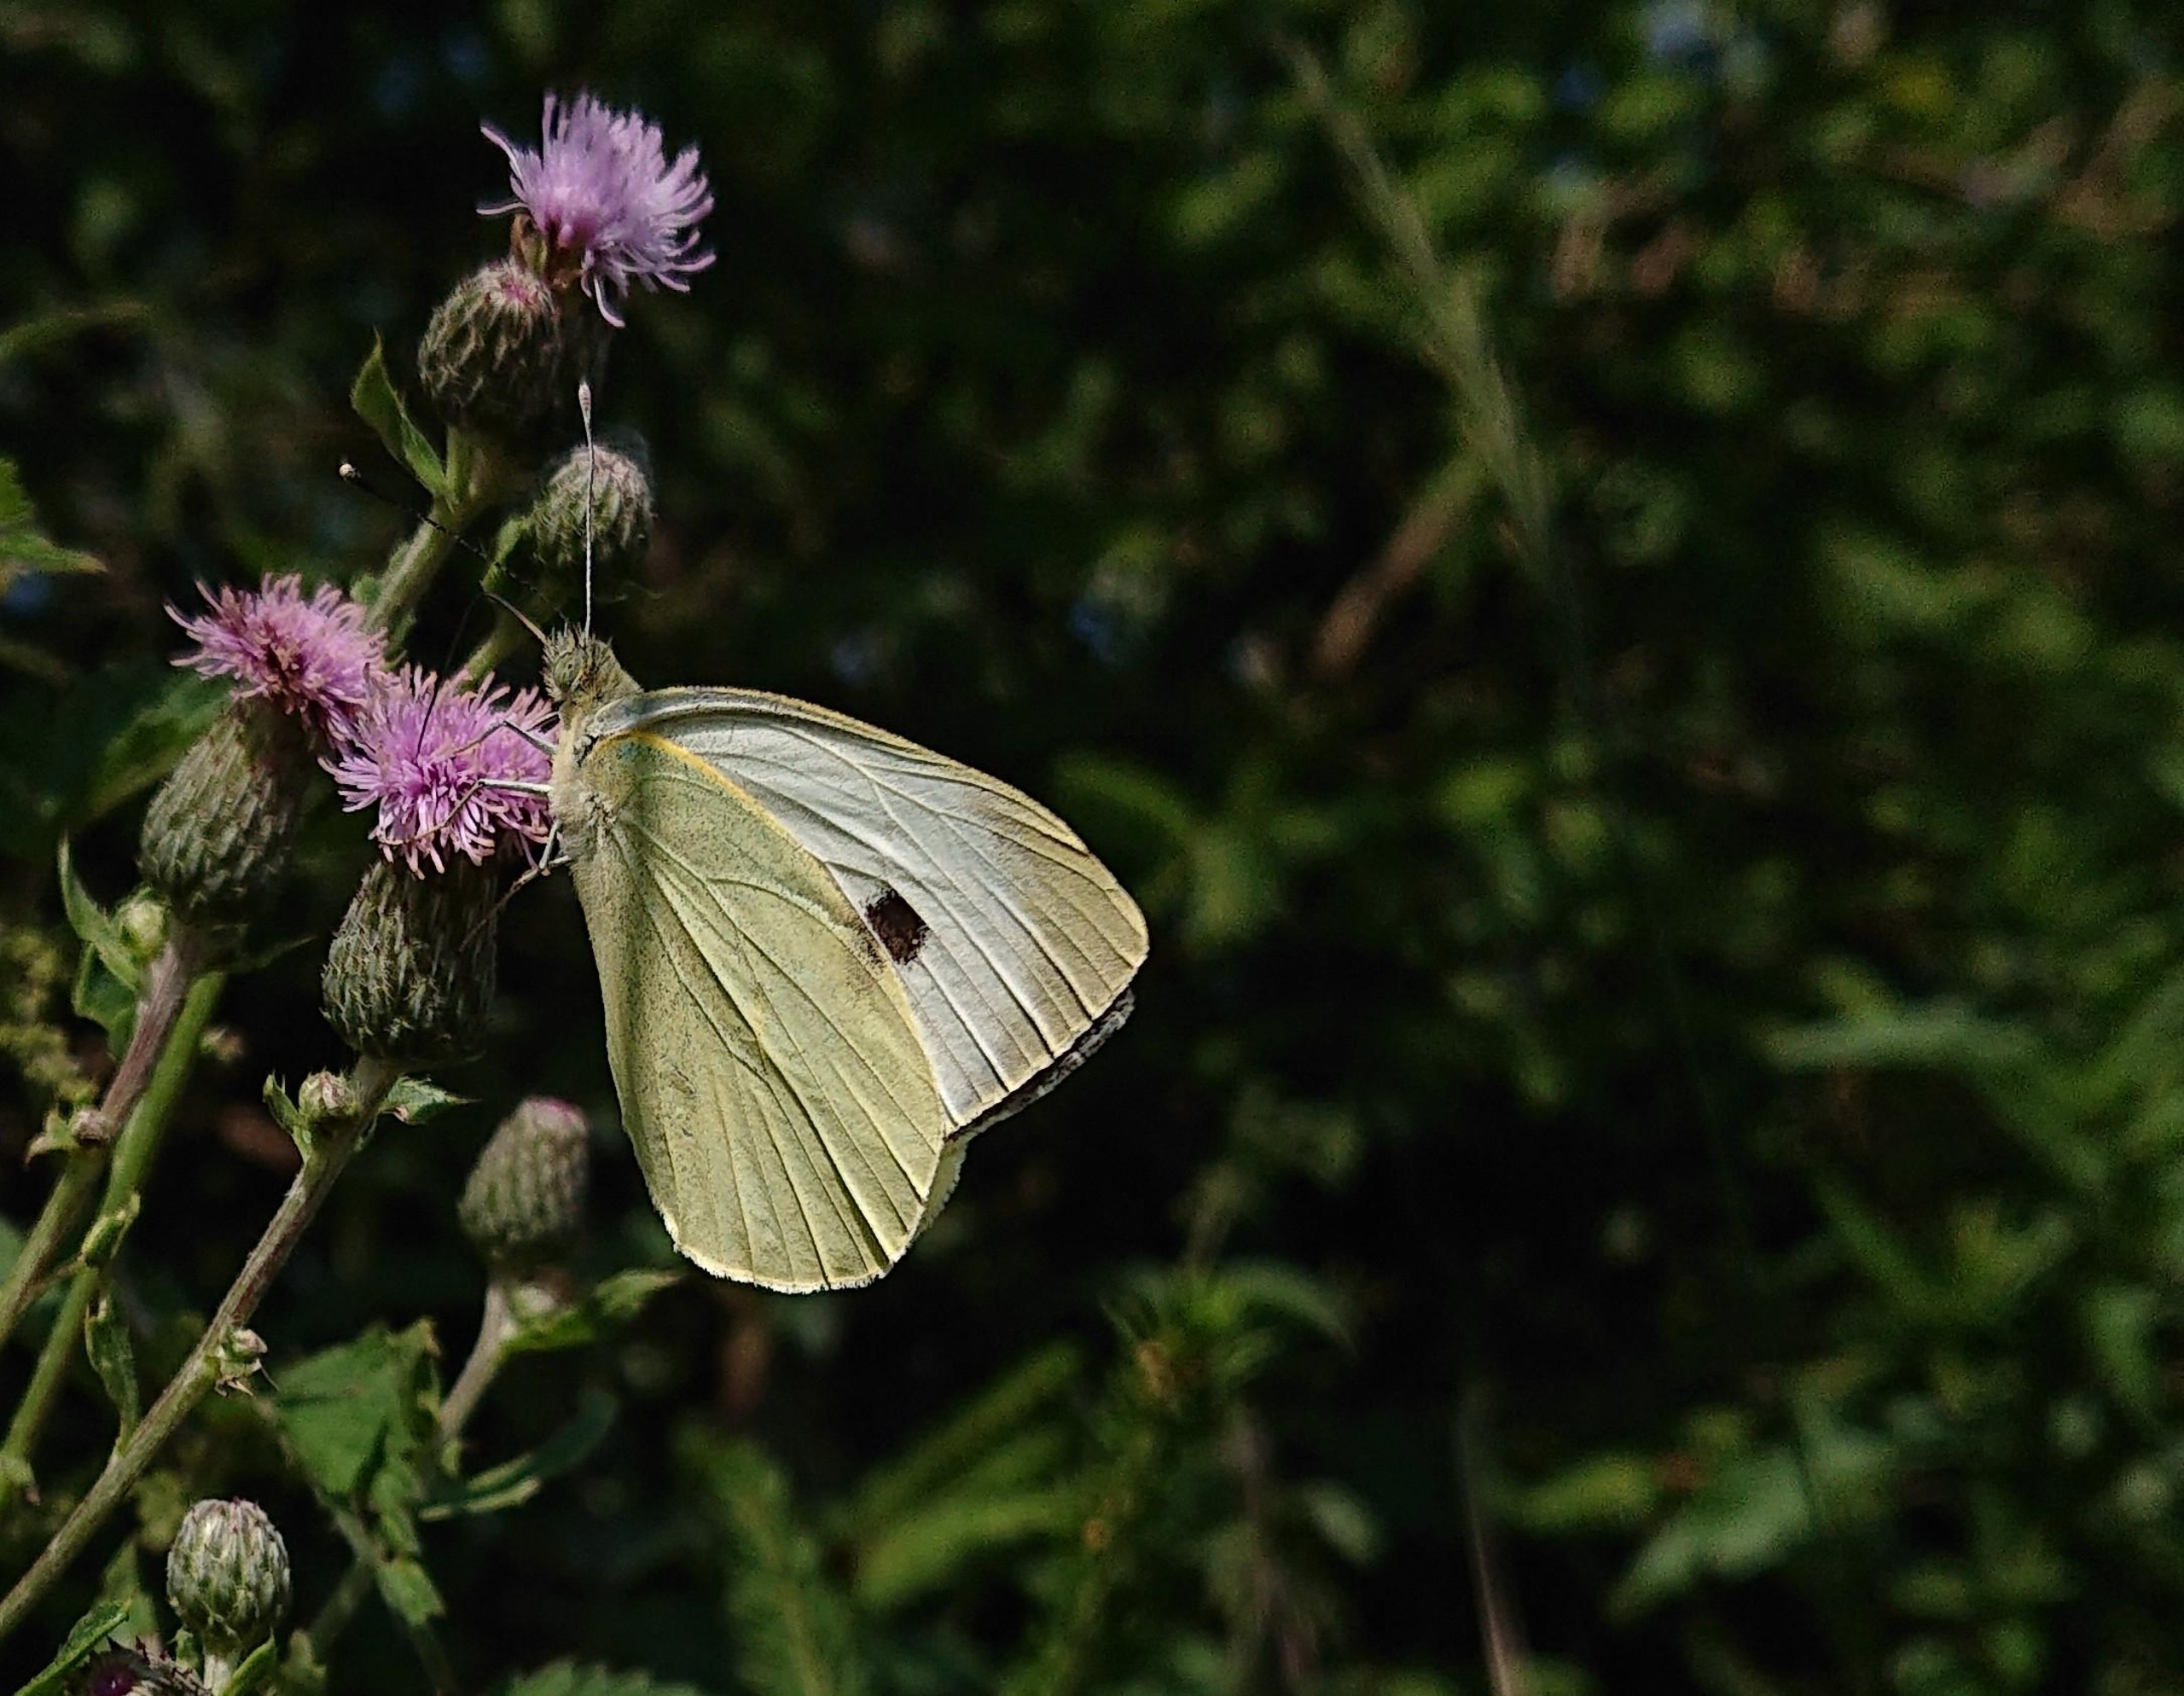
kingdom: Animalia
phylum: Arthropoda
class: Insecta
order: Lepidoptera
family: Pieridae
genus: Pieris
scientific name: Pieris brassicae
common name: Stor kålsommerfugl
